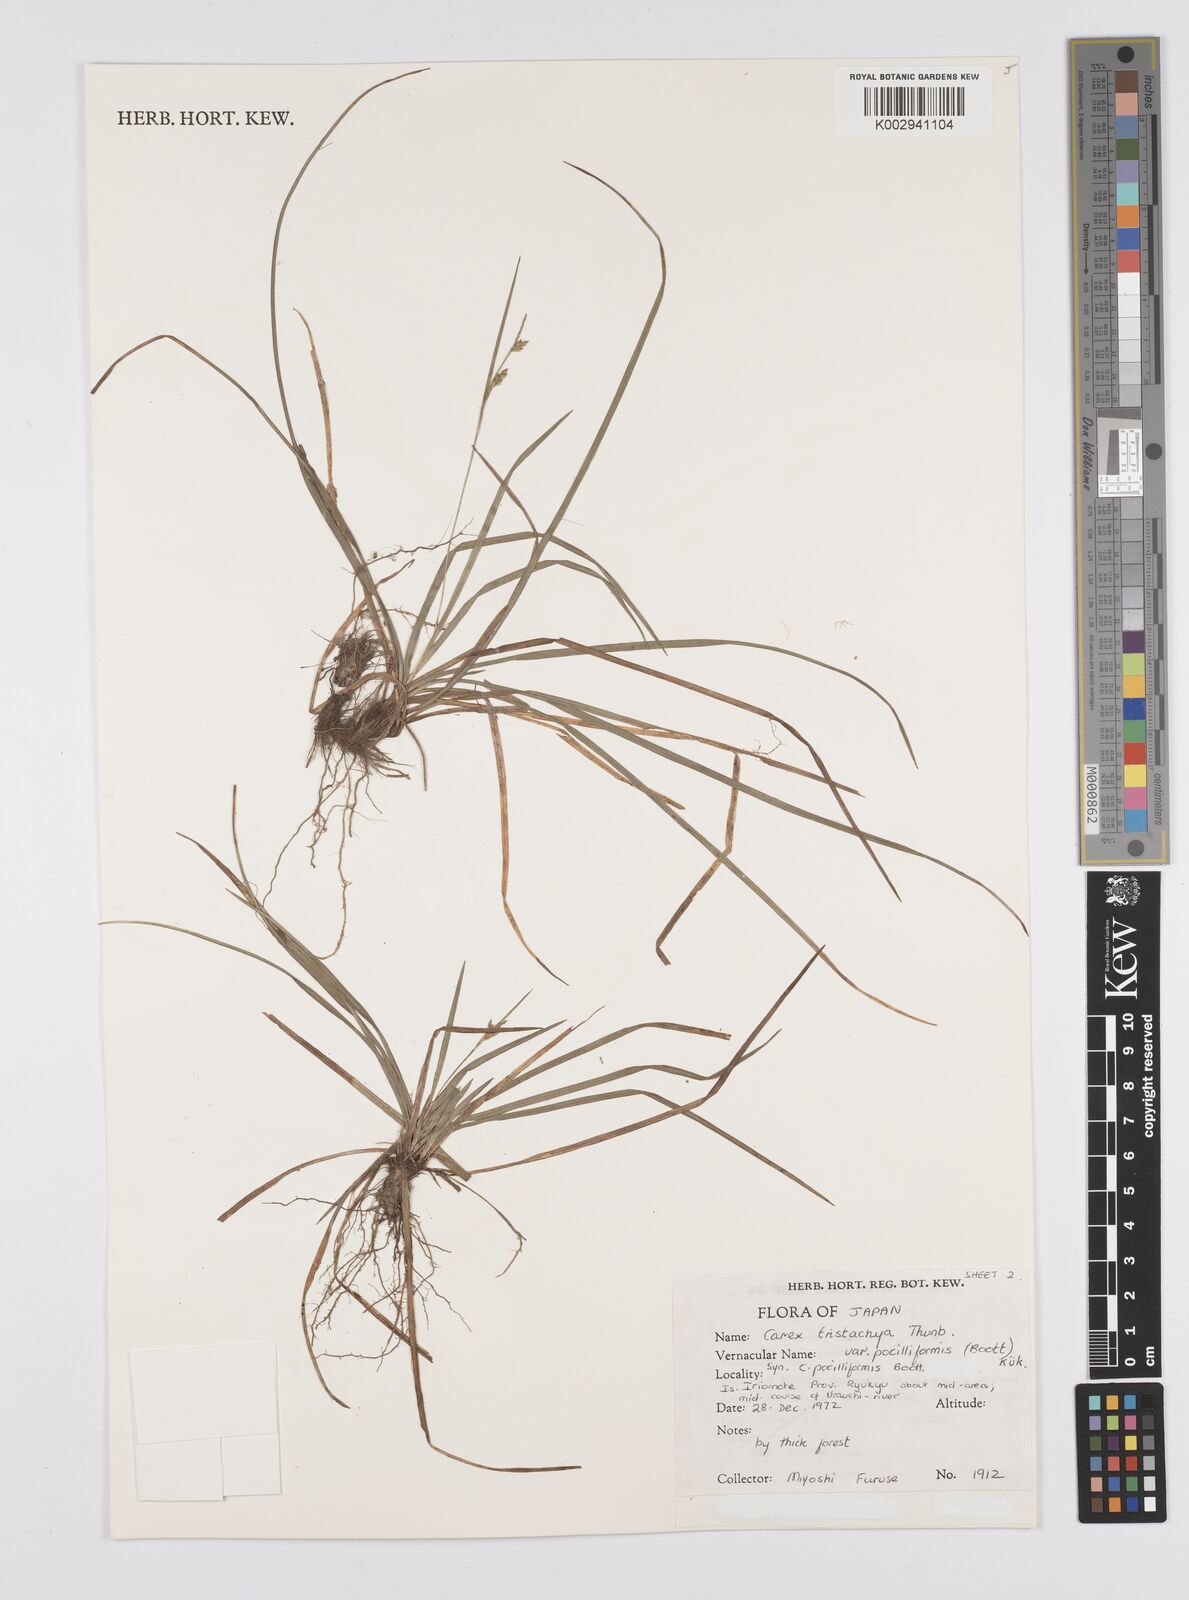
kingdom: Plantae
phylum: Tracheophyta
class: Liliopsida
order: Poales
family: Cyperaceae
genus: Carex
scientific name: Carex tristachya
